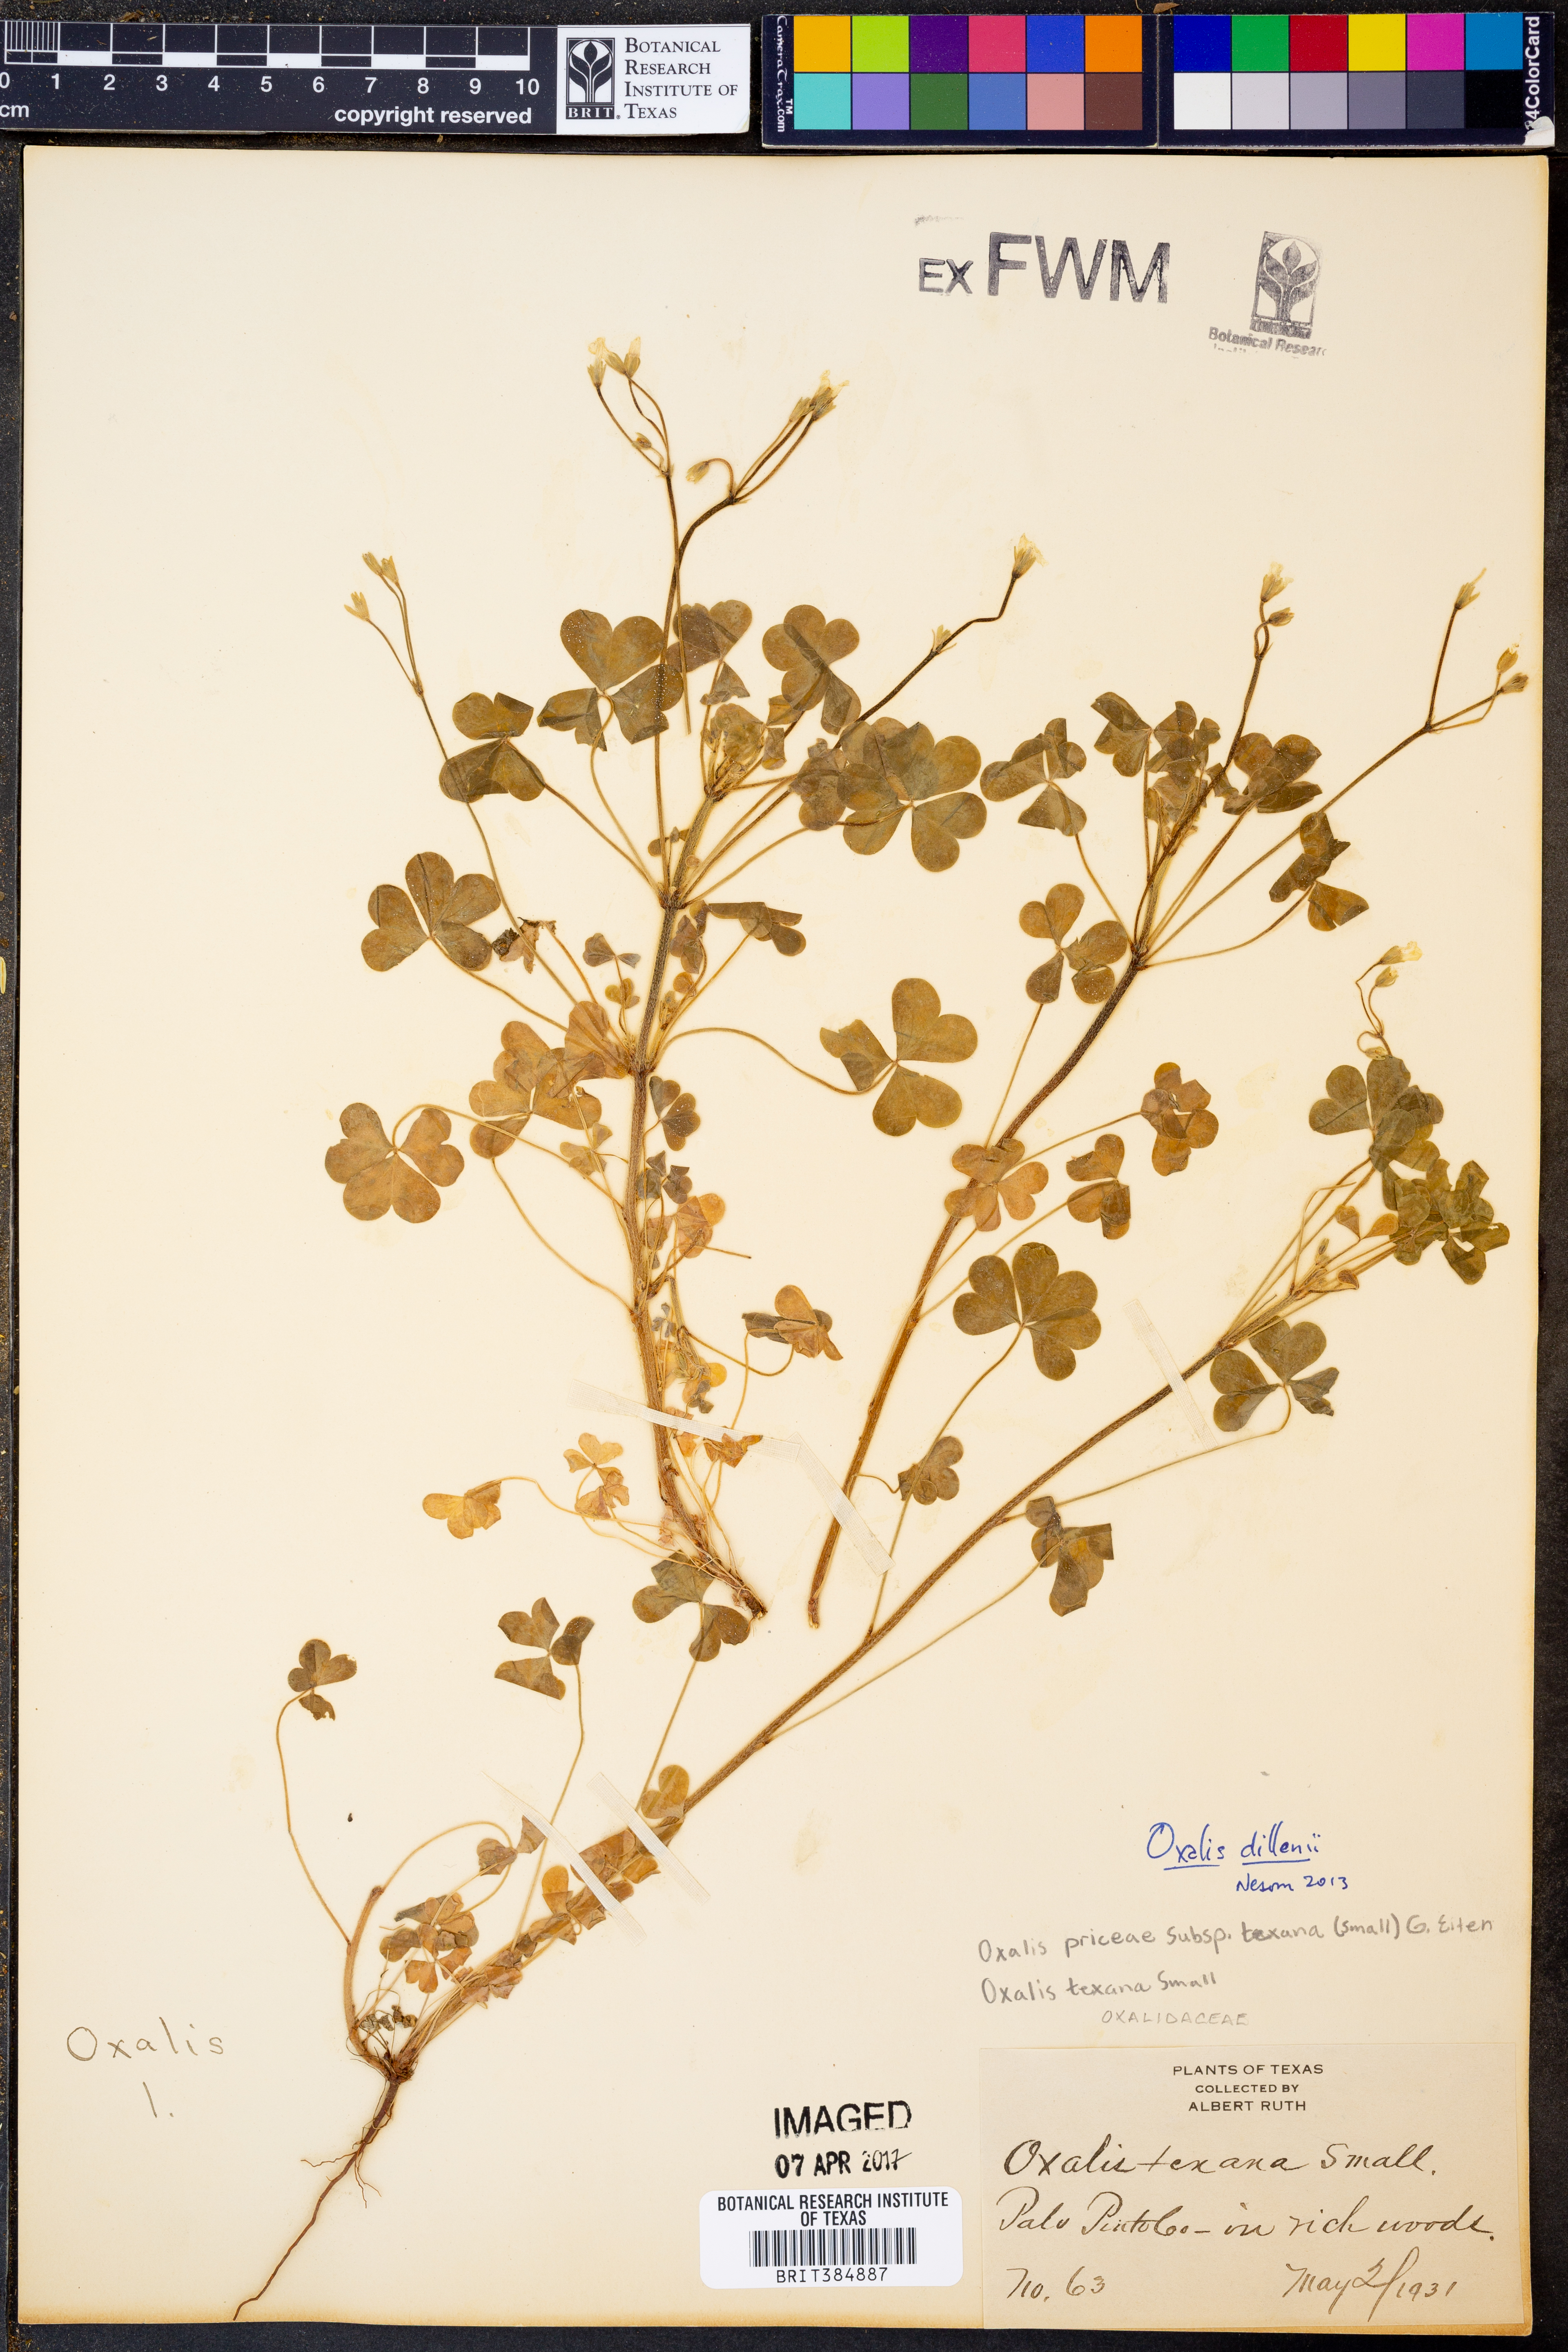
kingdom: Plantae
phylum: Tracheophyta
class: Magnoliopsida
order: Oxalidales
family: Oxalidaceae
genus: Oxalis
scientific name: Oxalis dillenii
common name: Sussex yellow-sorrel
